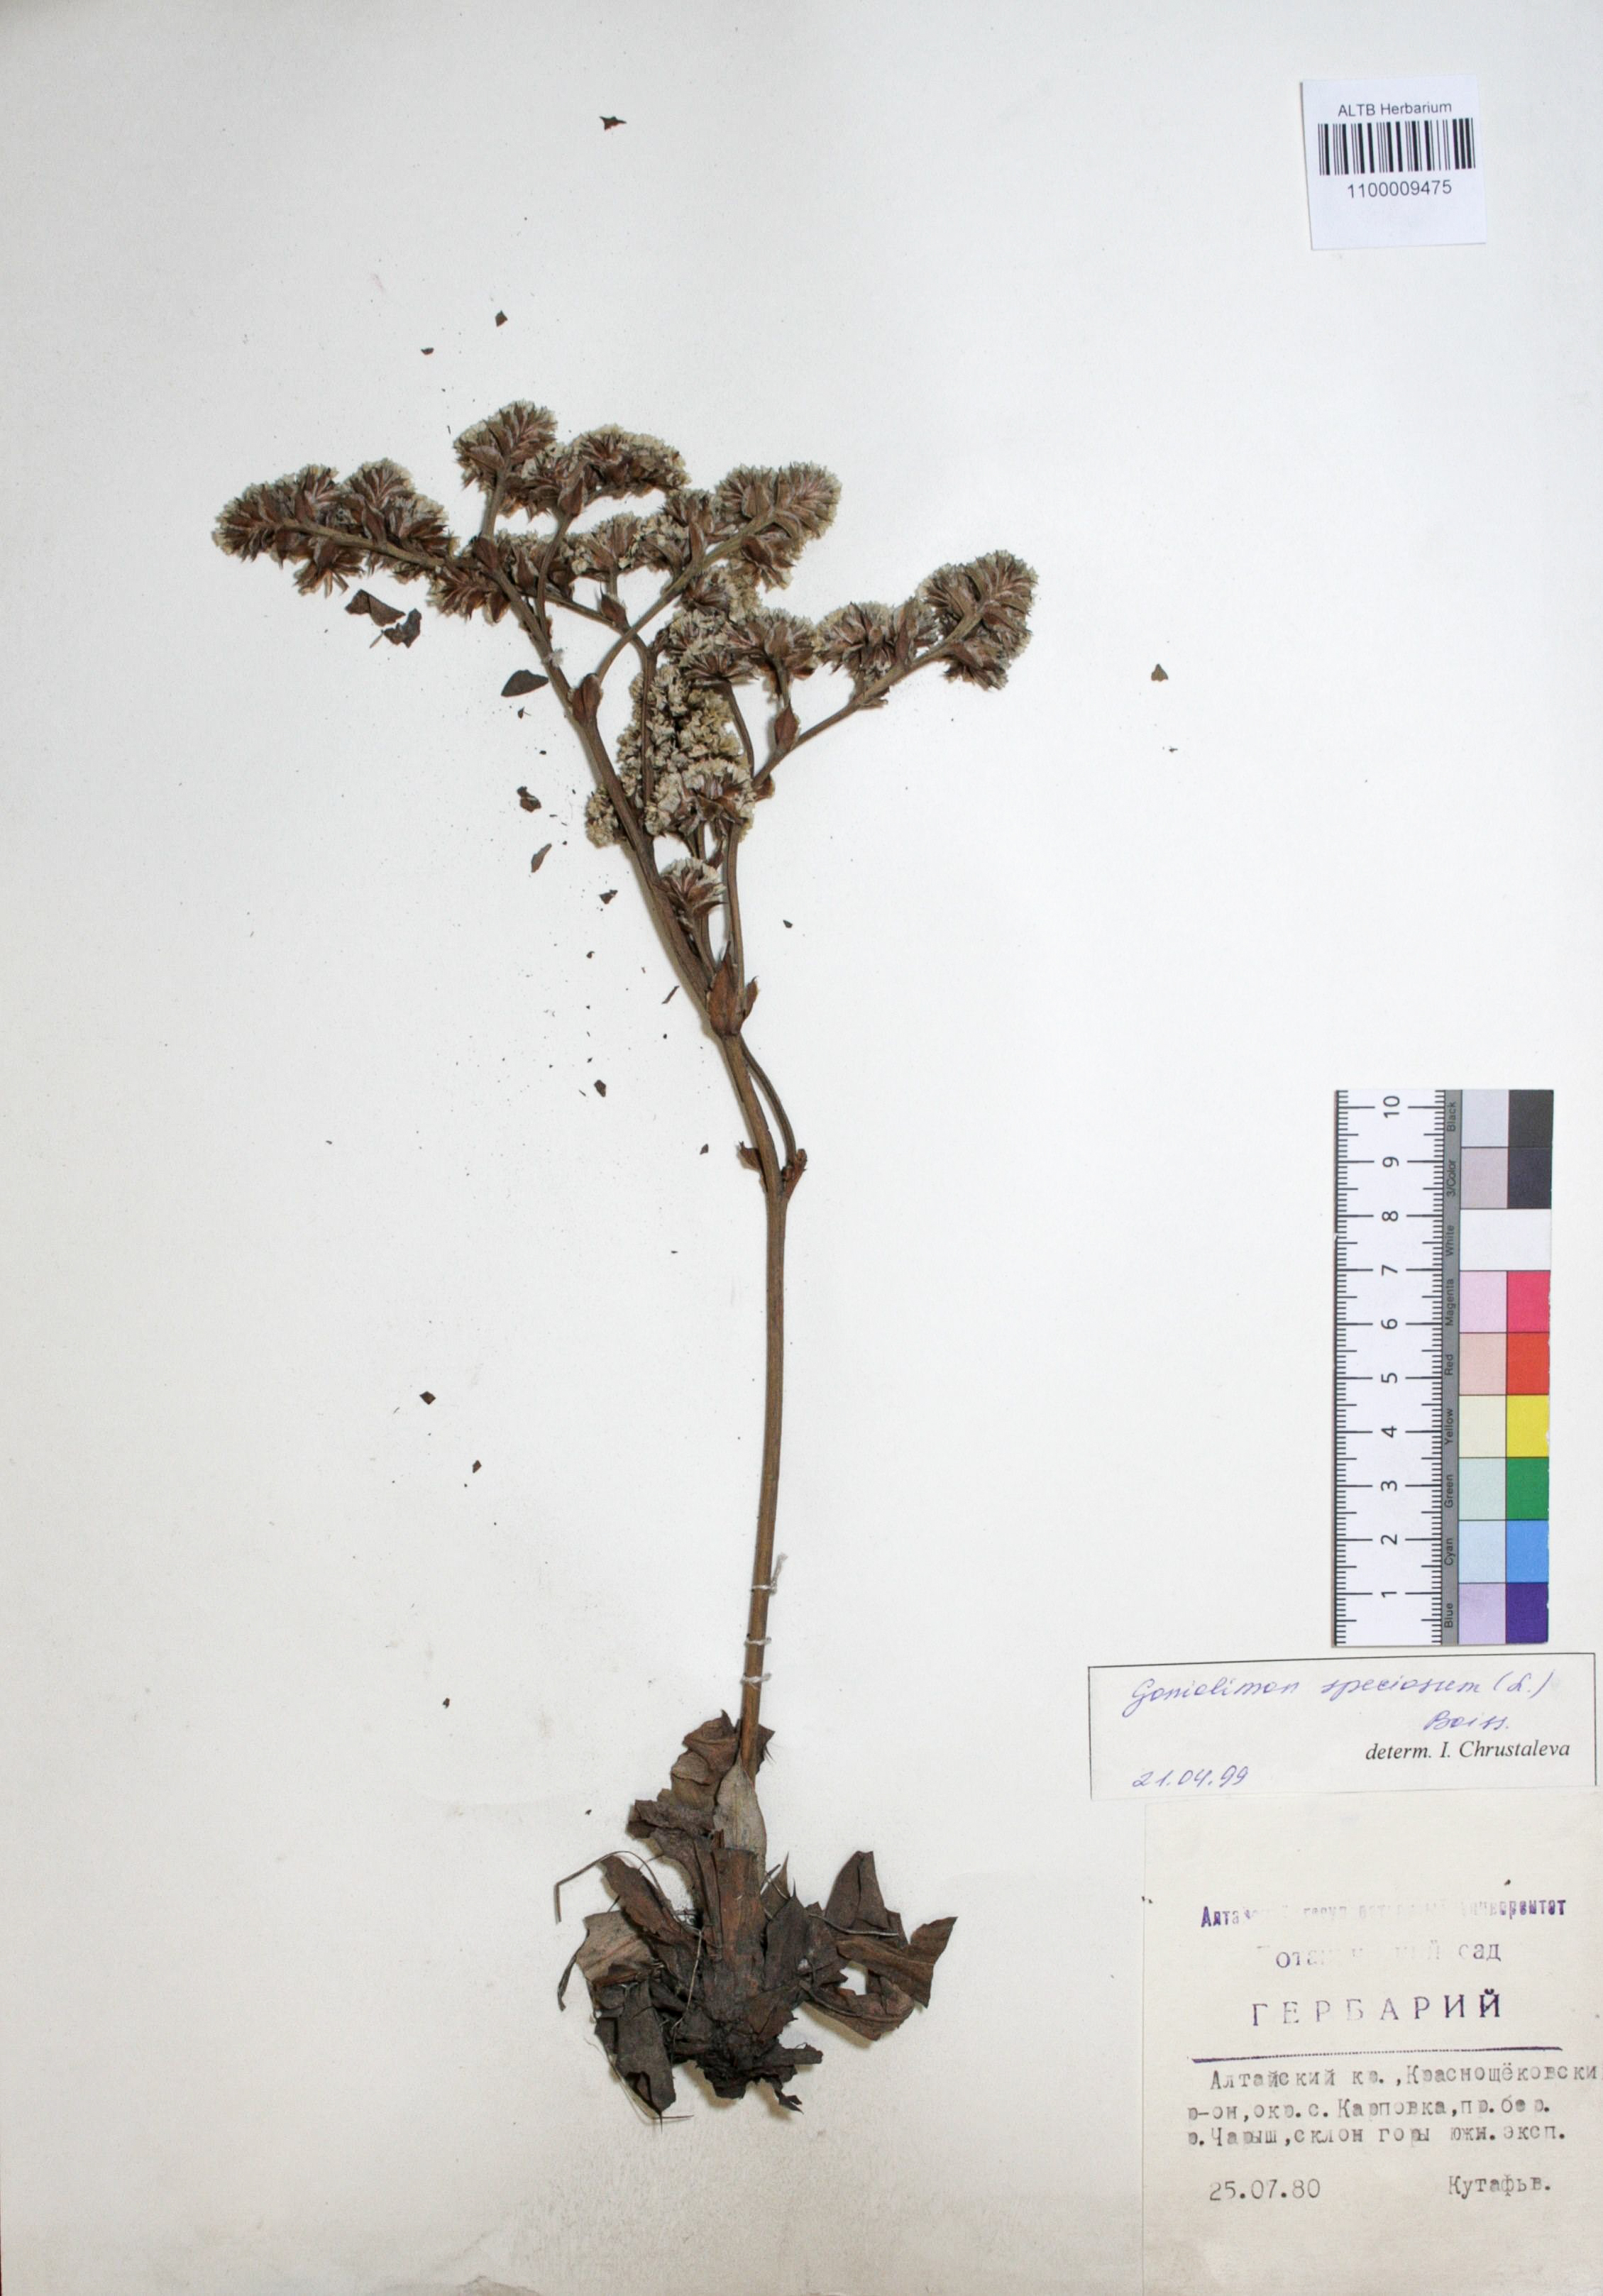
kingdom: Plantae
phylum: Tracheophyta
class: Magnoliopsida
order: Caryophyllales
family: Plumbaginaceae
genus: Goniolimon
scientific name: Goniolimon speciosum
